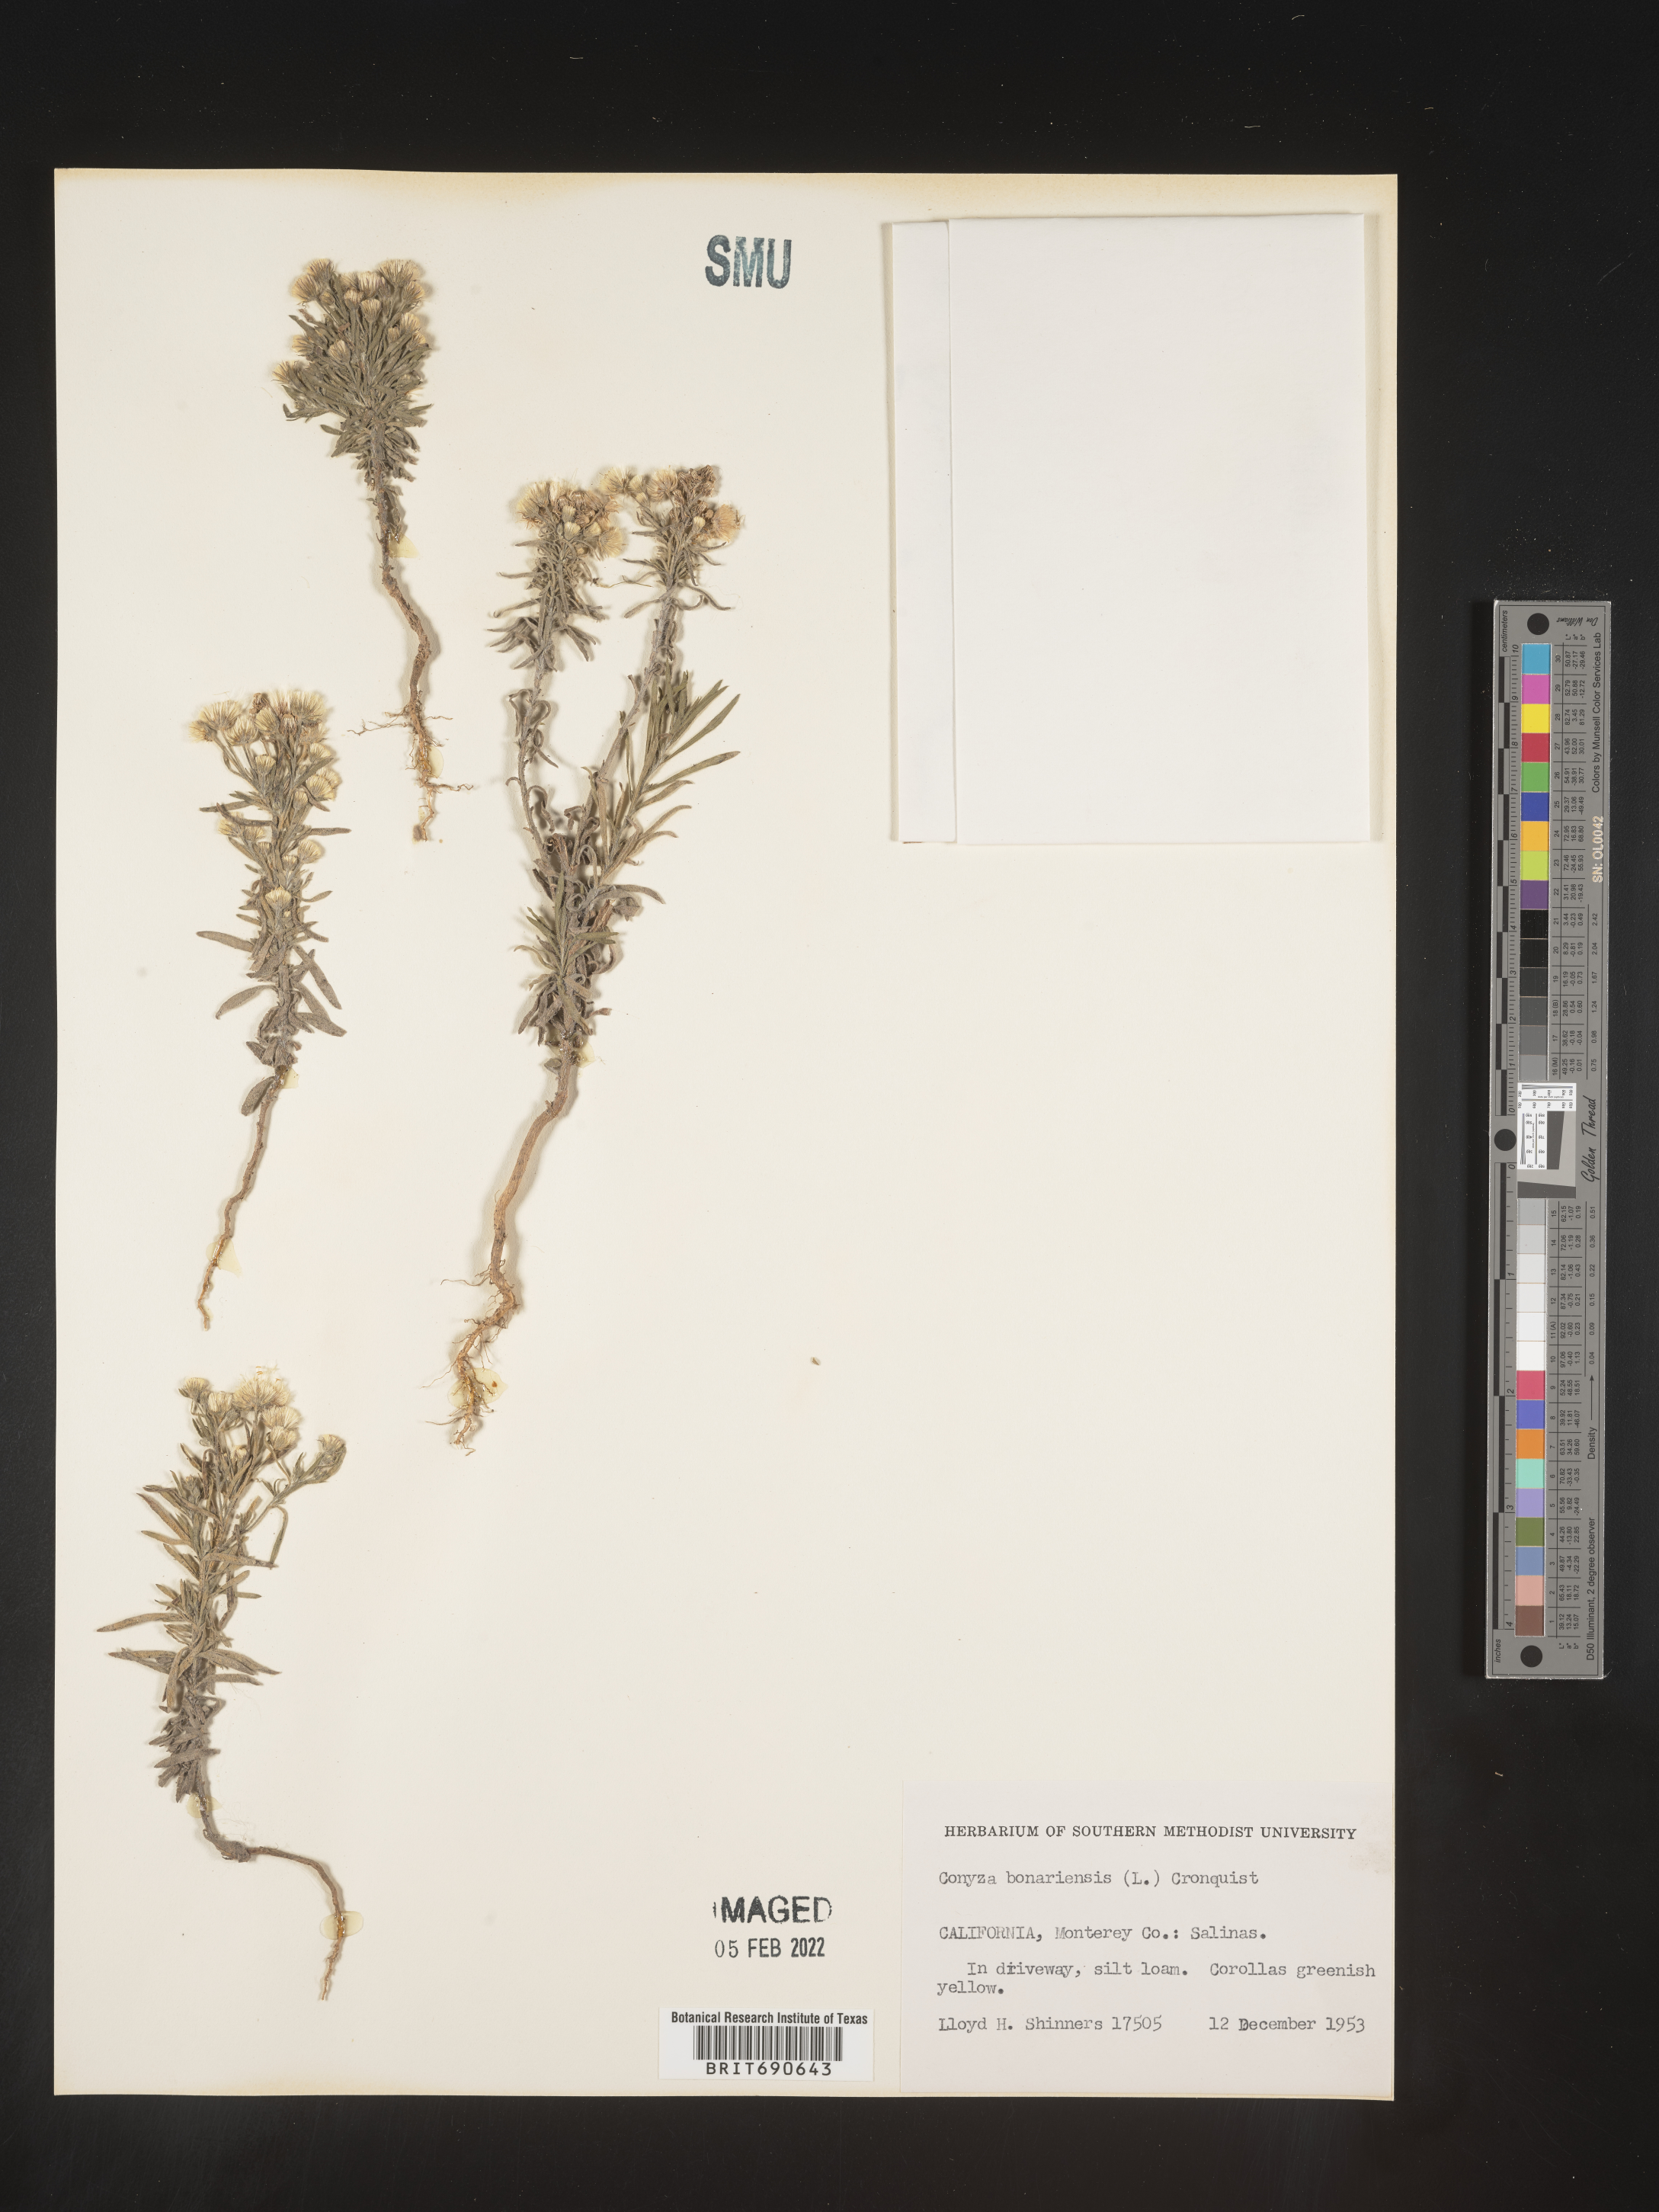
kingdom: Plantae
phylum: Tracheophyta
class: Magnoliopsida
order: Asterales
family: Asteraceae
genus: Erigeron
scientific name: Erigeron bonariensis
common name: Argentine fleabane
